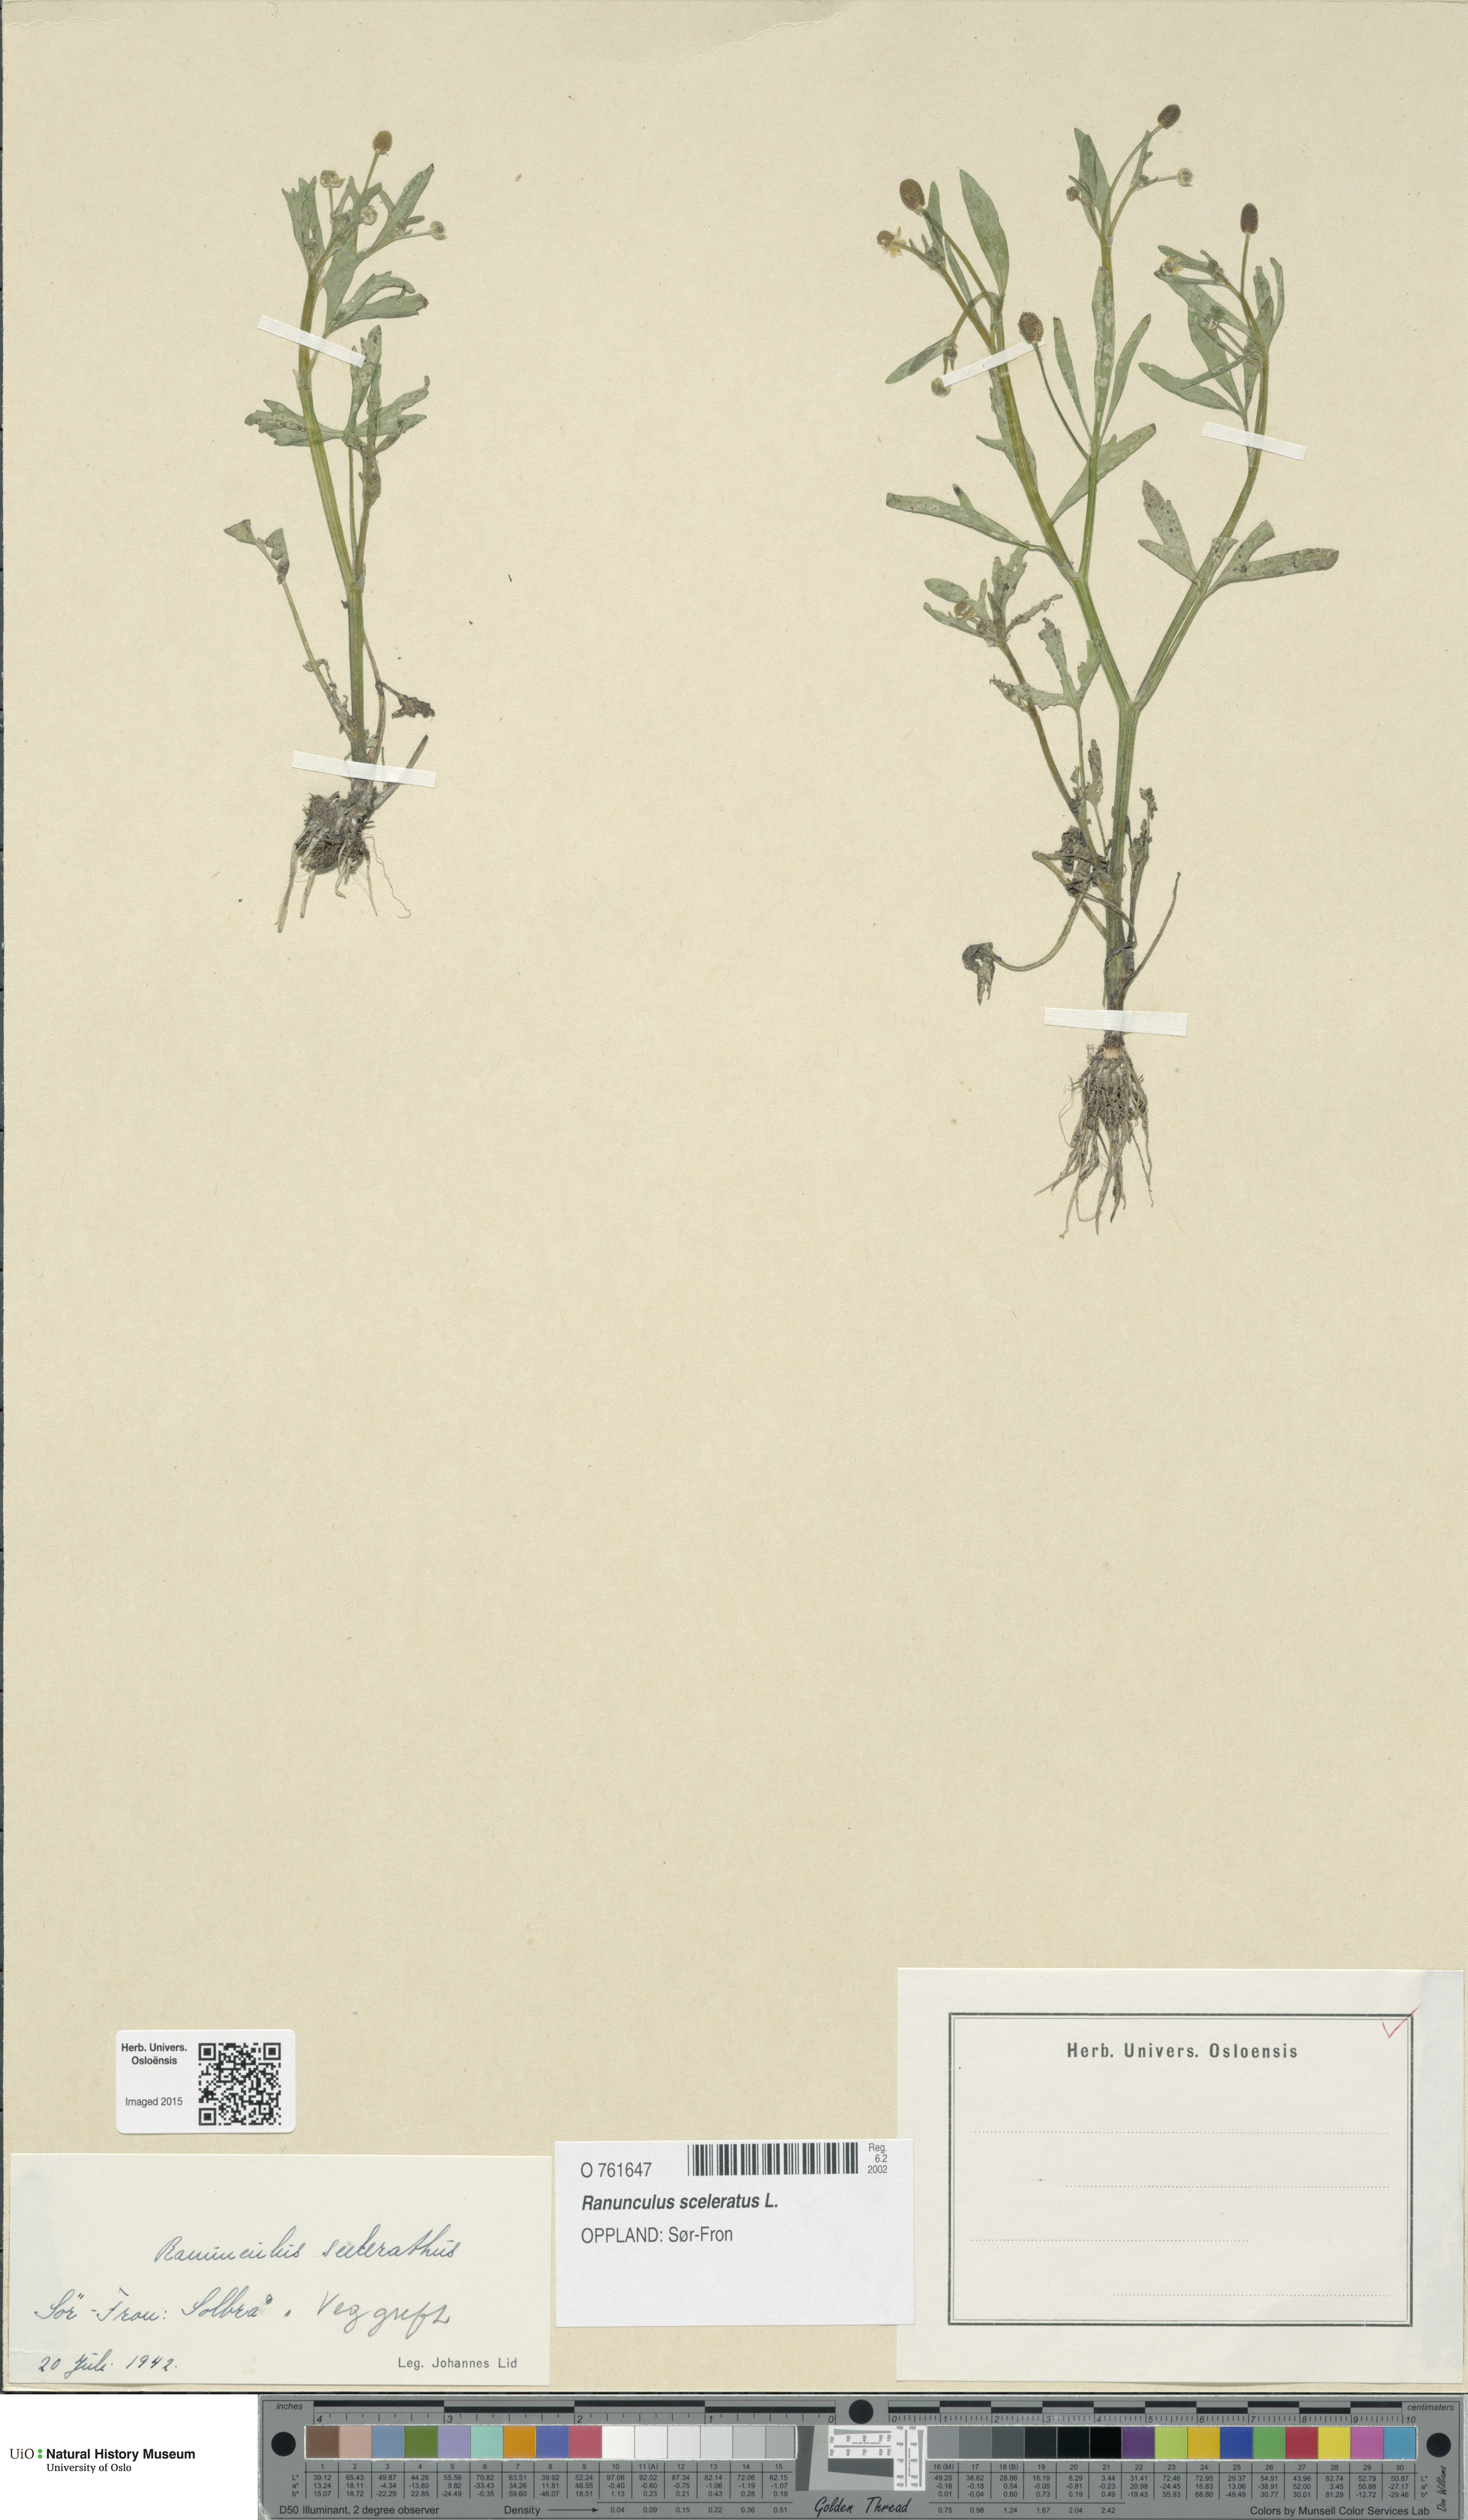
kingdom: Plantae
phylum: Tracheophyta
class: Magnoliopsida
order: Ranunculales
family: Ranunculaceae
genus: Ranunculus
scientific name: Ranunculus sceleratus
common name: Celery-leaved buttercup
